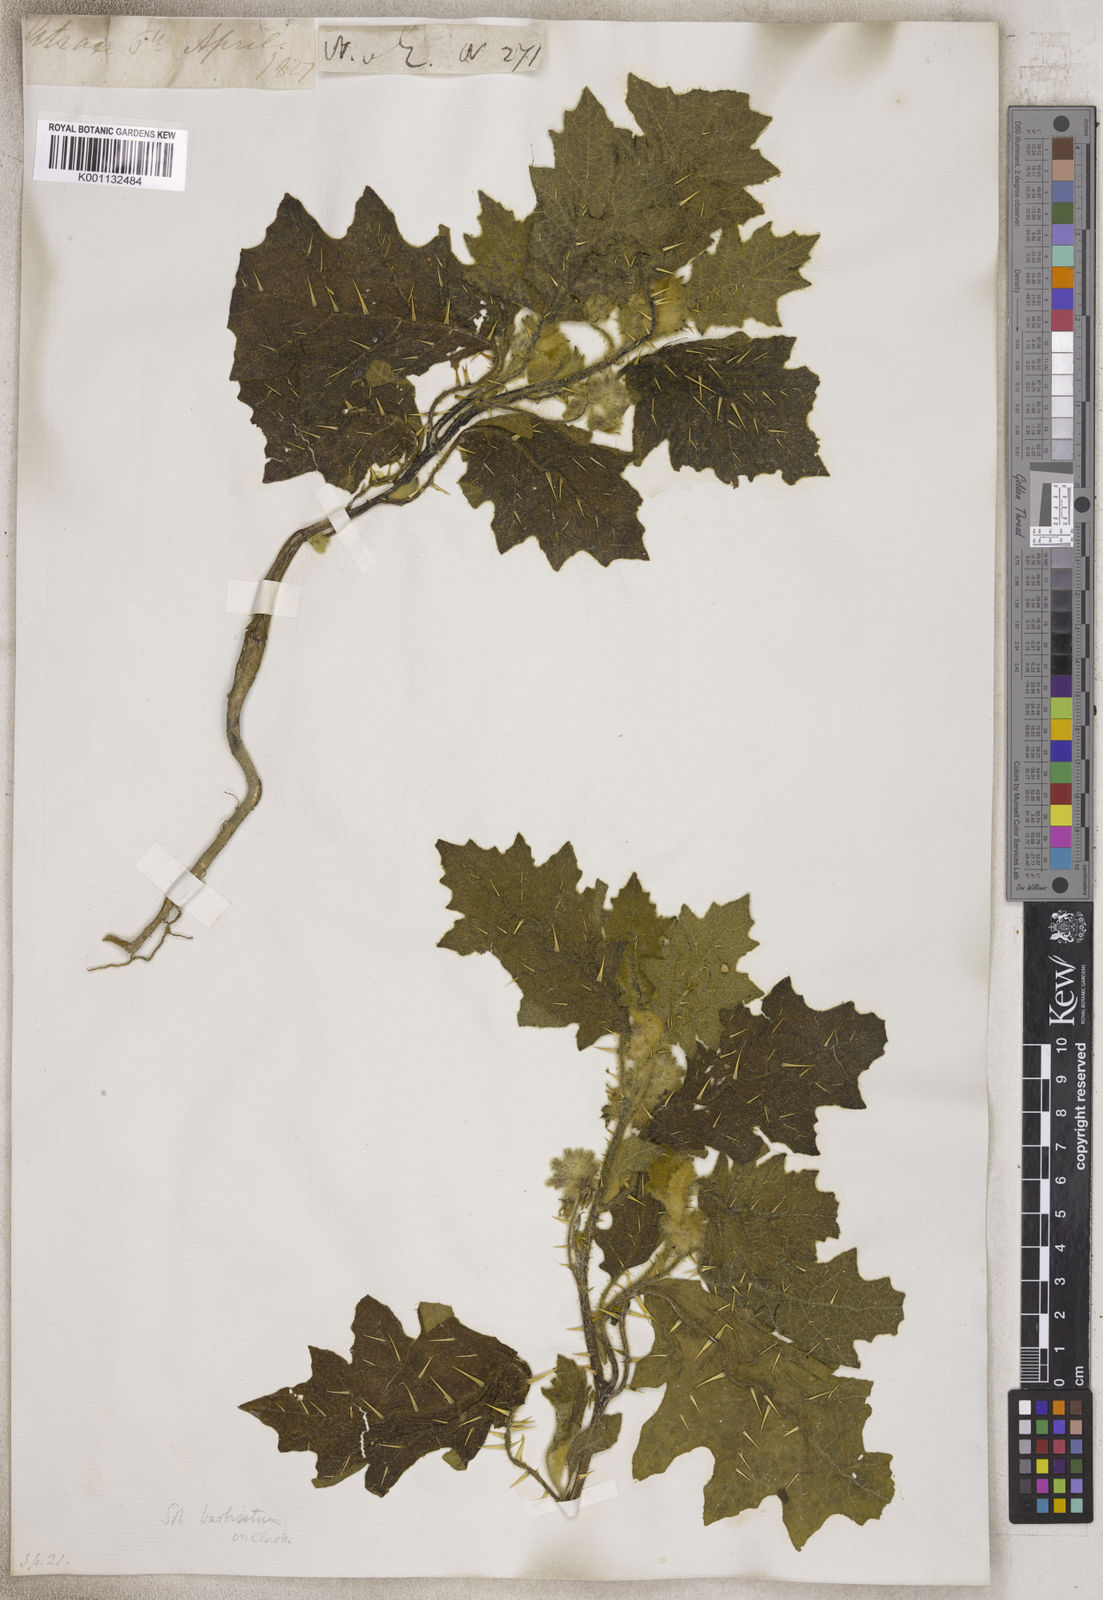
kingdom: Plantae
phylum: Tracheophyta
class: Magnoliopsida
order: Solanales
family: Solanaceae
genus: Solanum
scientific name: Solanum
